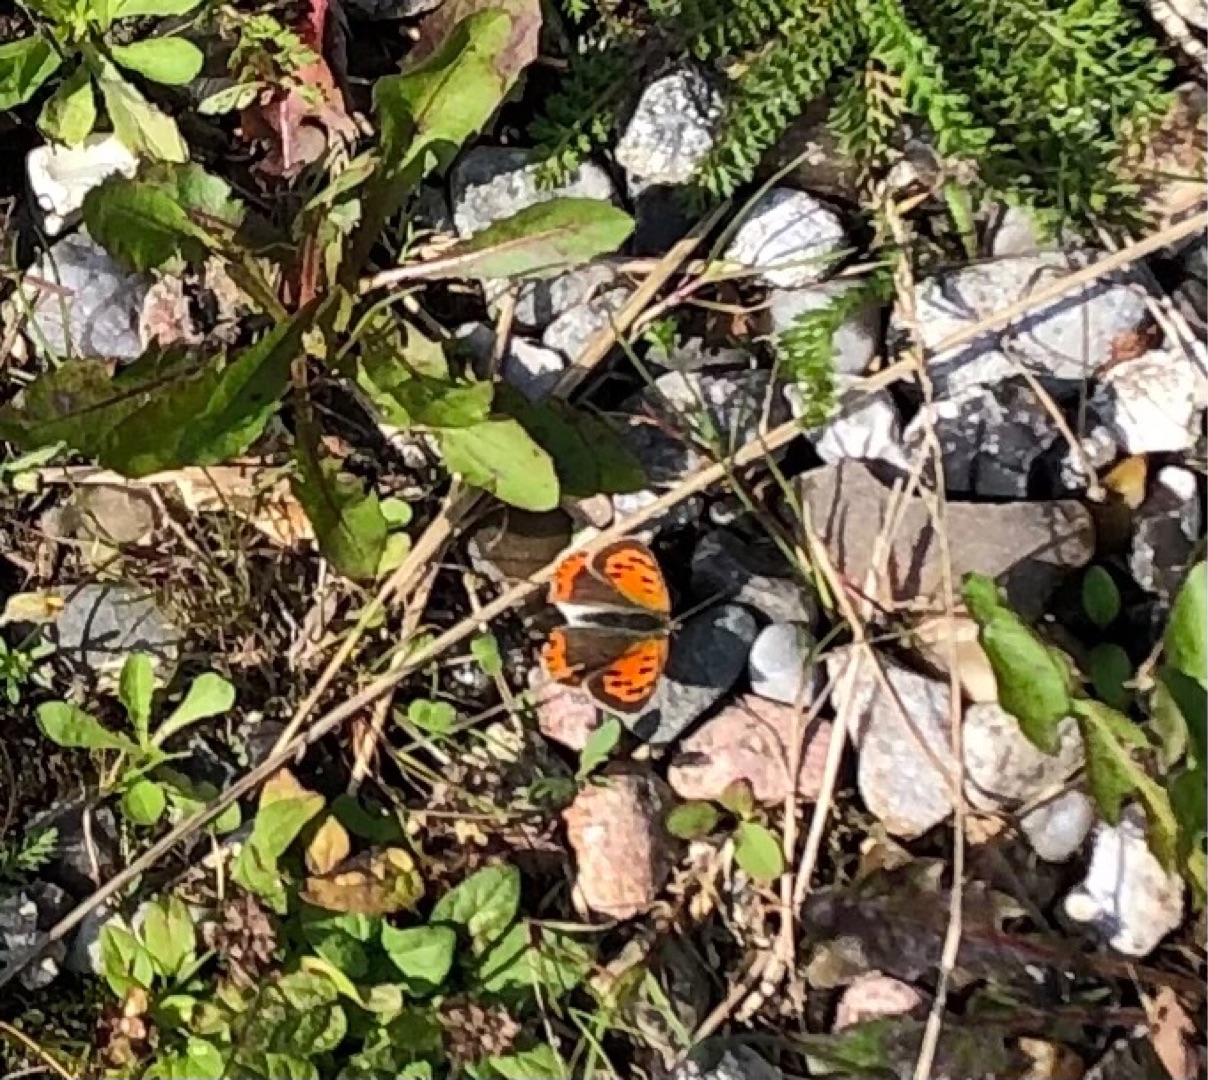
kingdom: Animalia
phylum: Arthropoda
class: Insecta
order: Lepidoptera
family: Lycaenidae
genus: Lycaena
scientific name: Lycaena phlaeas
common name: Lille ildfugl
